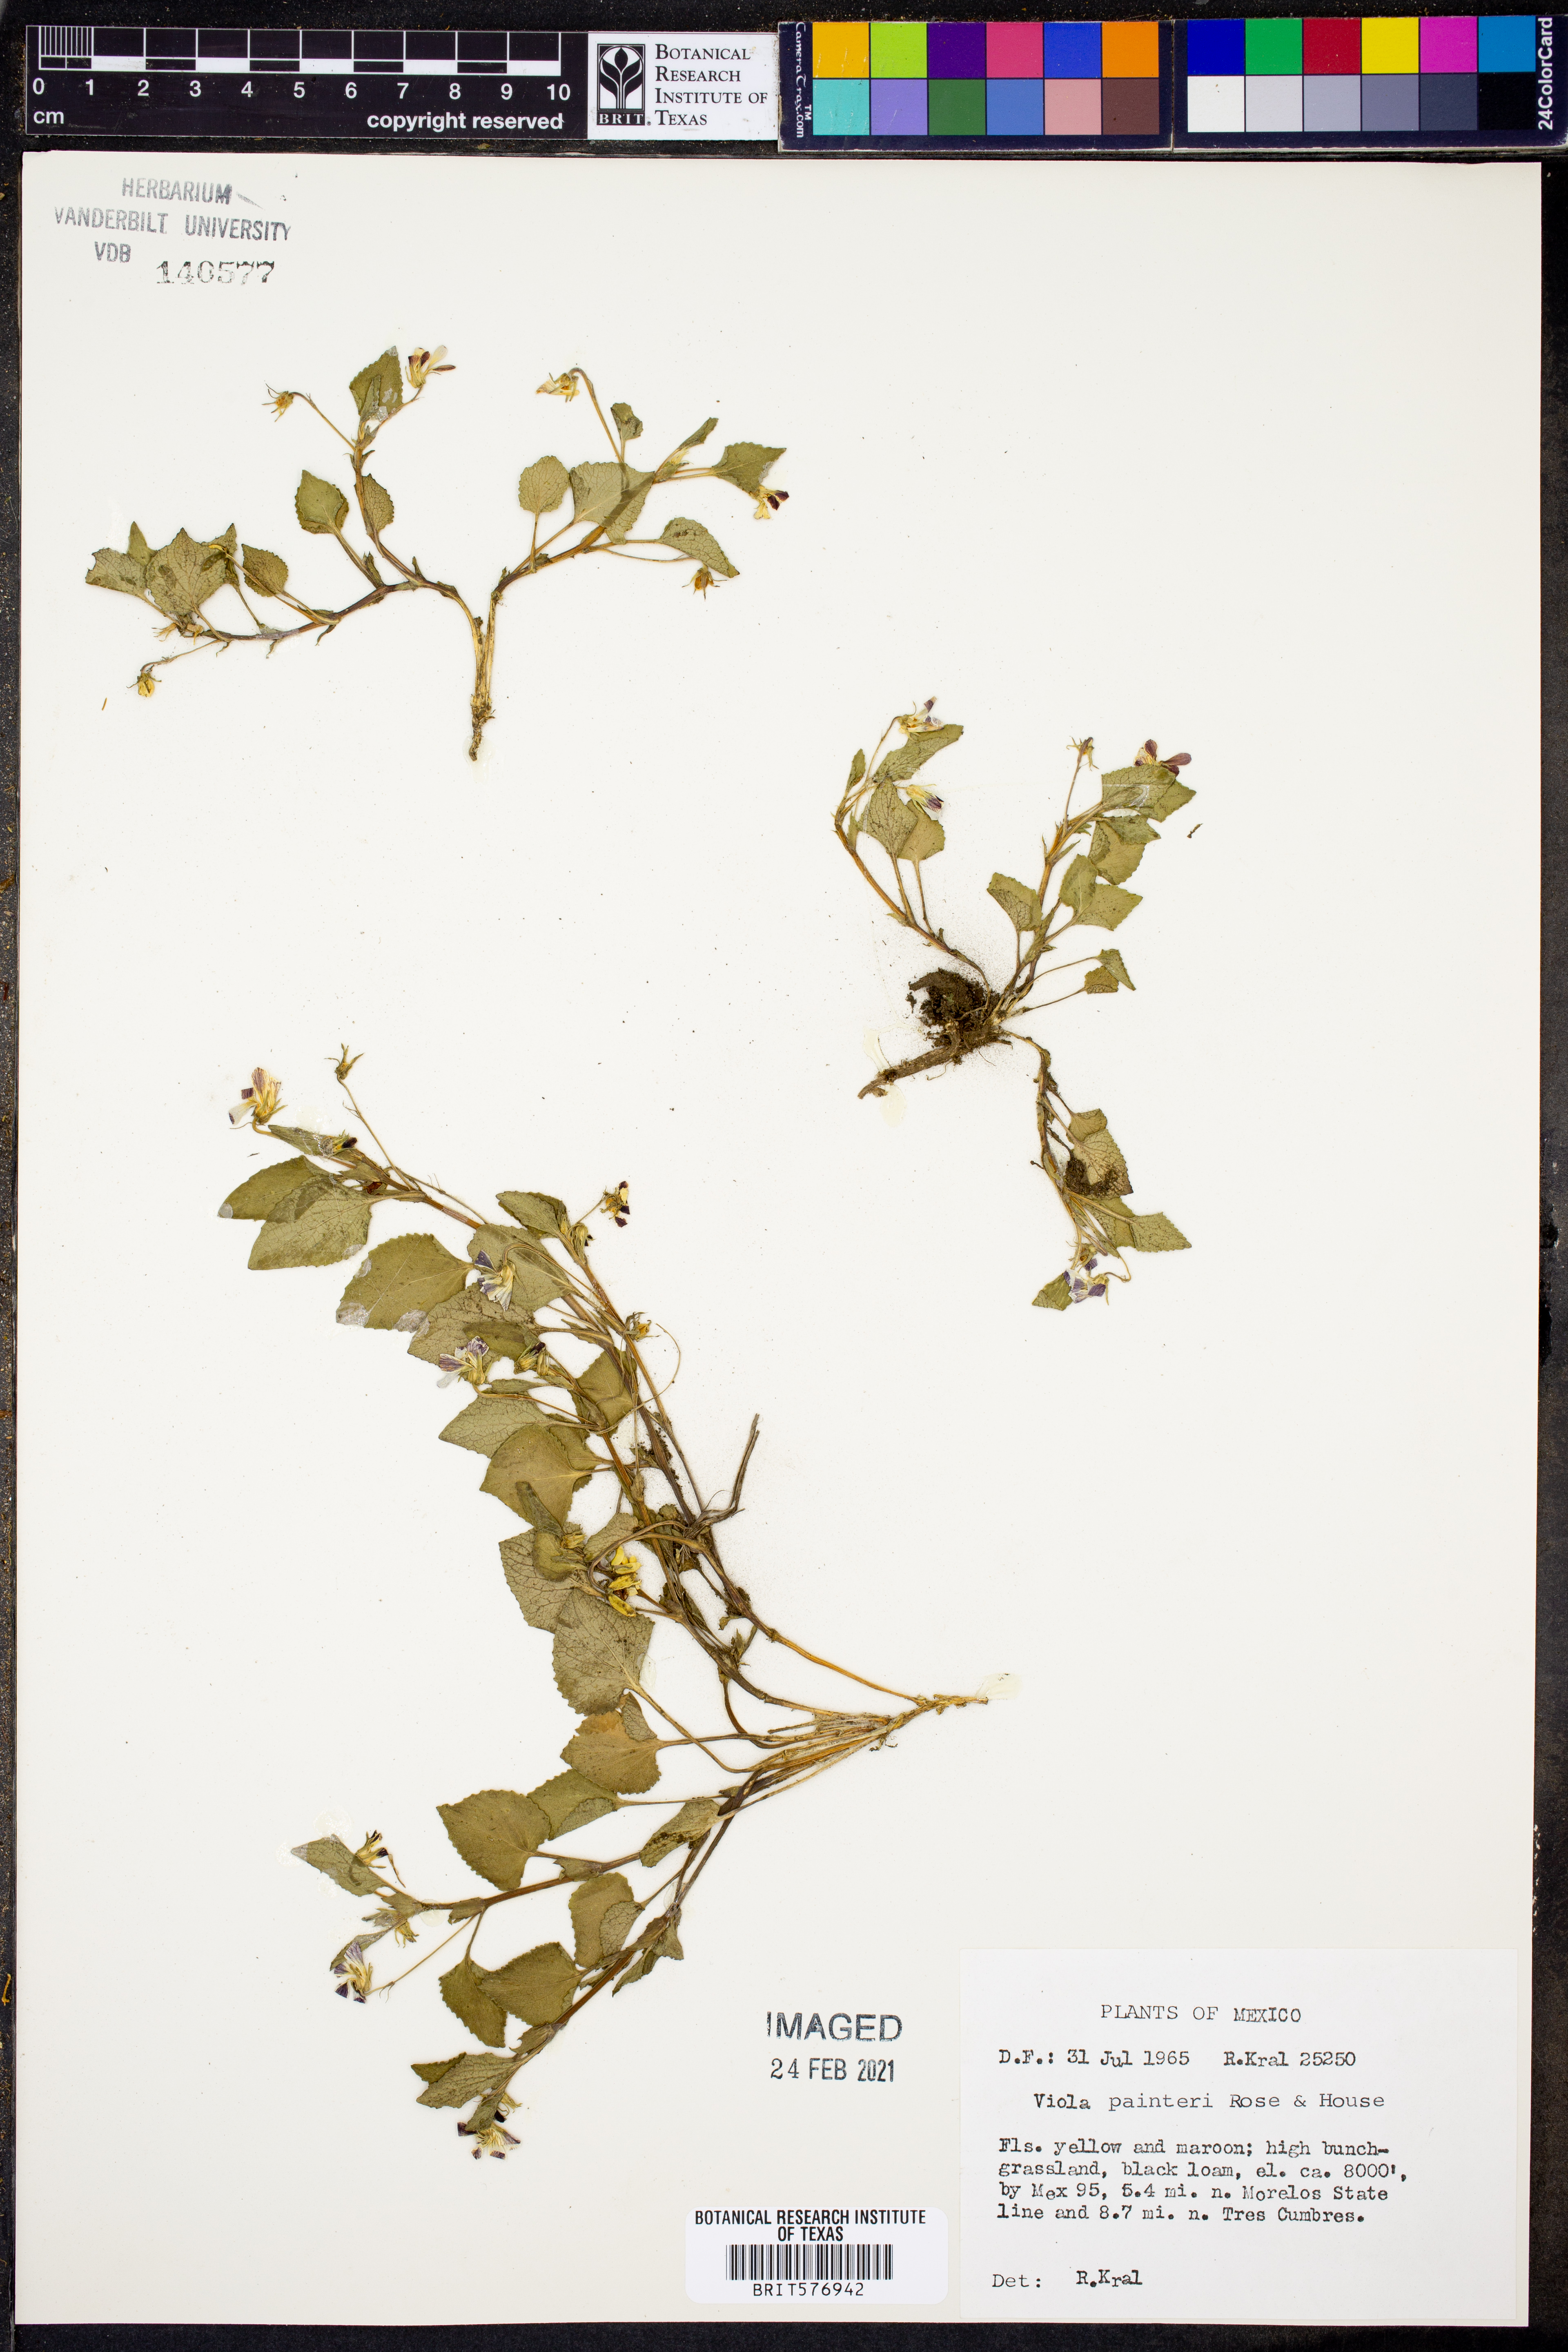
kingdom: Plantae
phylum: Tracheophyta
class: Magnoliopsida
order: Malpighiales
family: Violaceae
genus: Viola
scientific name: Viola painteri
